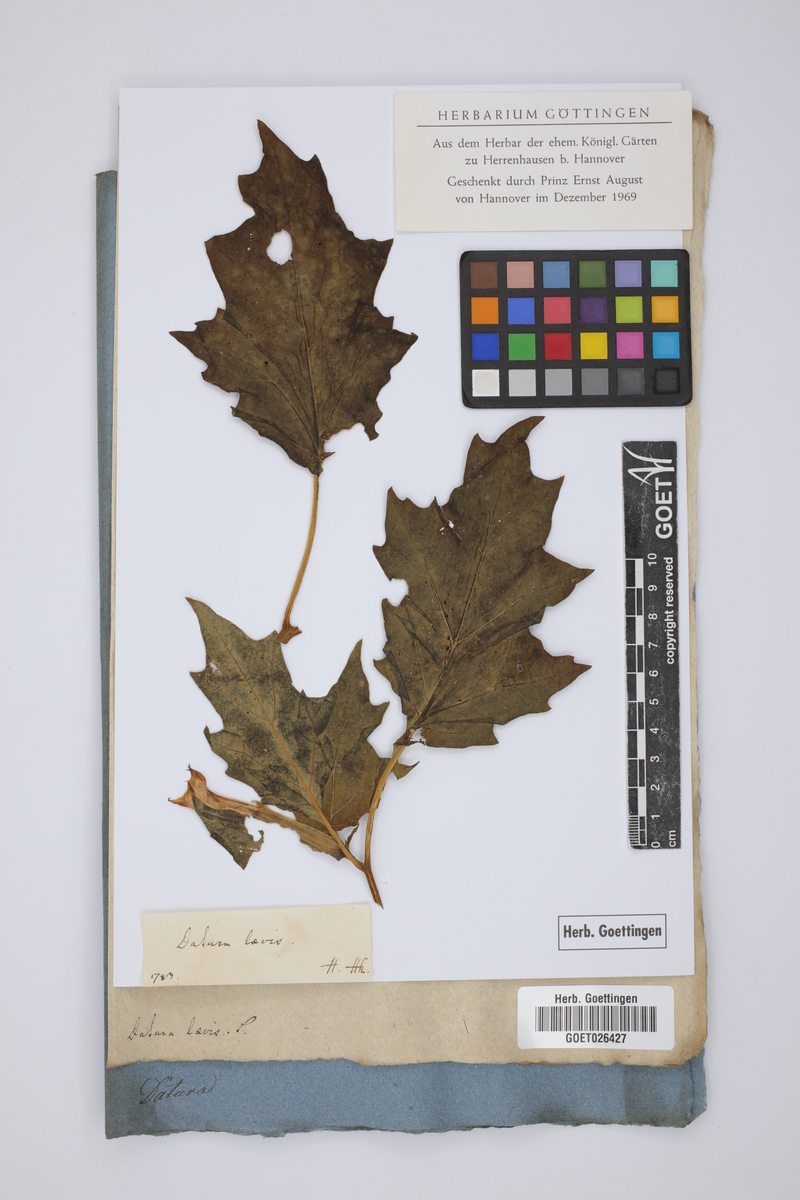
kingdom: Plantae
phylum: Tracheophyta
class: Magnoliopsida
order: Solanales
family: Solanaceae
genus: Datura
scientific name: Datura stramonium
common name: Thorn-apple
